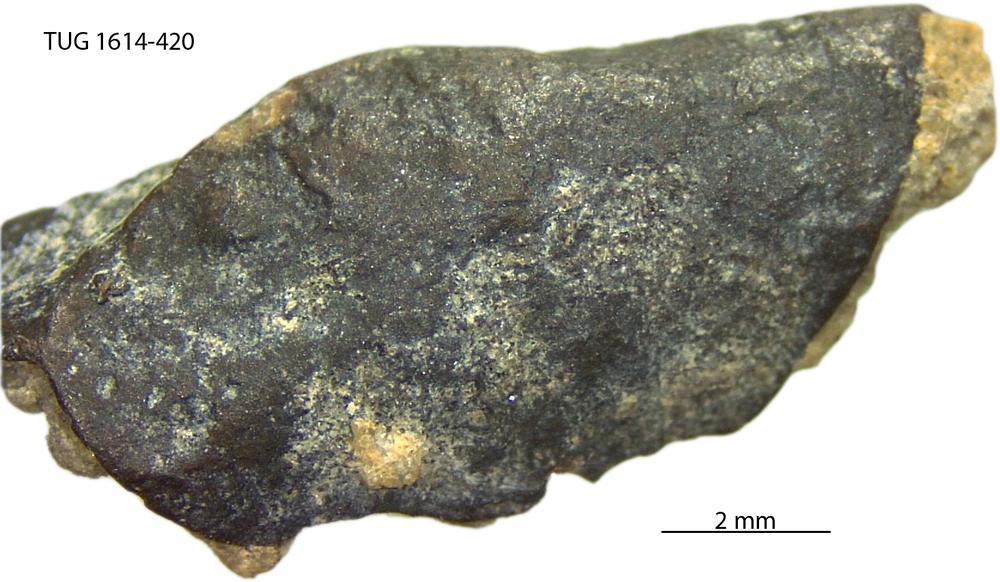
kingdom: Animalia
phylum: Mollusca
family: Scenellidae
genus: Scenella
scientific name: Scenella
